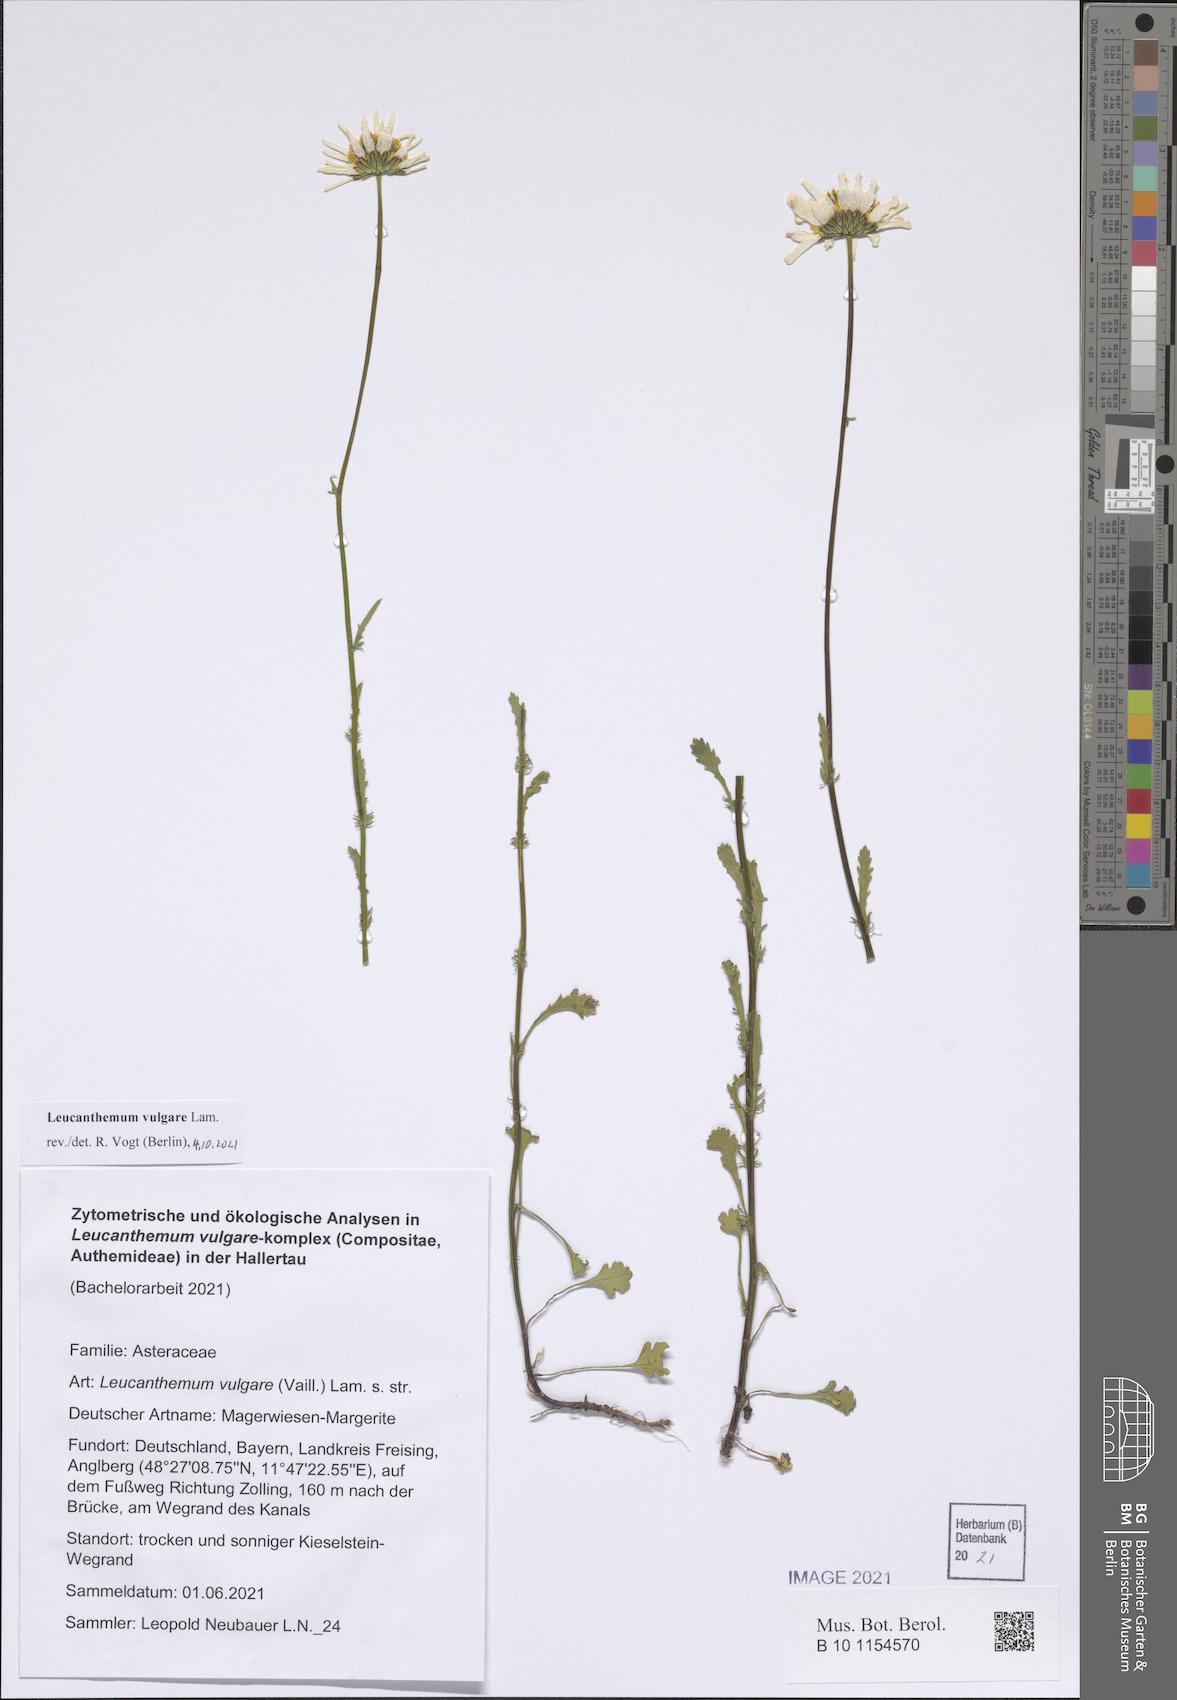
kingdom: Plantae
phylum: Tracheophyta
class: Magnoliopsida
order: Asterales
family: Asteraceae
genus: Leucanthemum
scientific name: Leucanthemum vulgare
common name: Oxeye daisy
